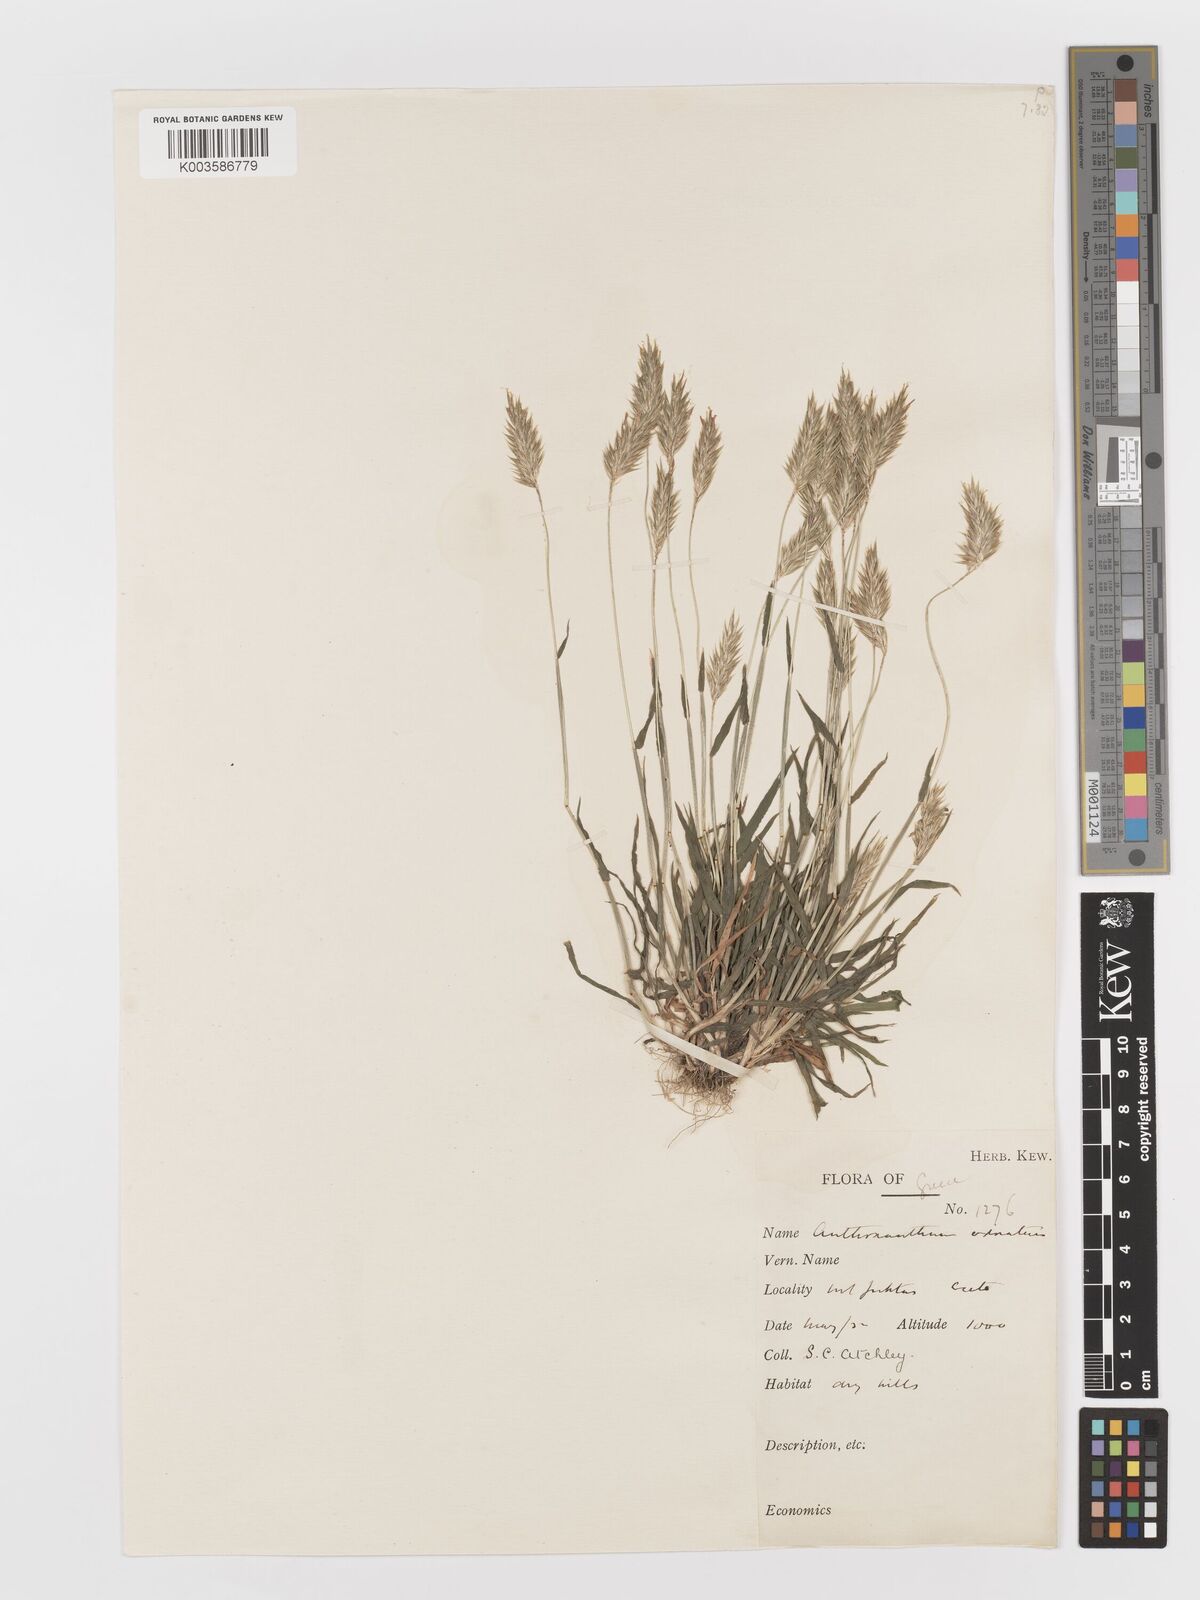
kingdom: Plantae
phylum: Tracheophyta
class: Liliopsida
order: Poales
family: Poaceae
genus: Anthoxanthum
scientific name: Anthoxanthum odoratum
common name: Sweet vernalgrass
